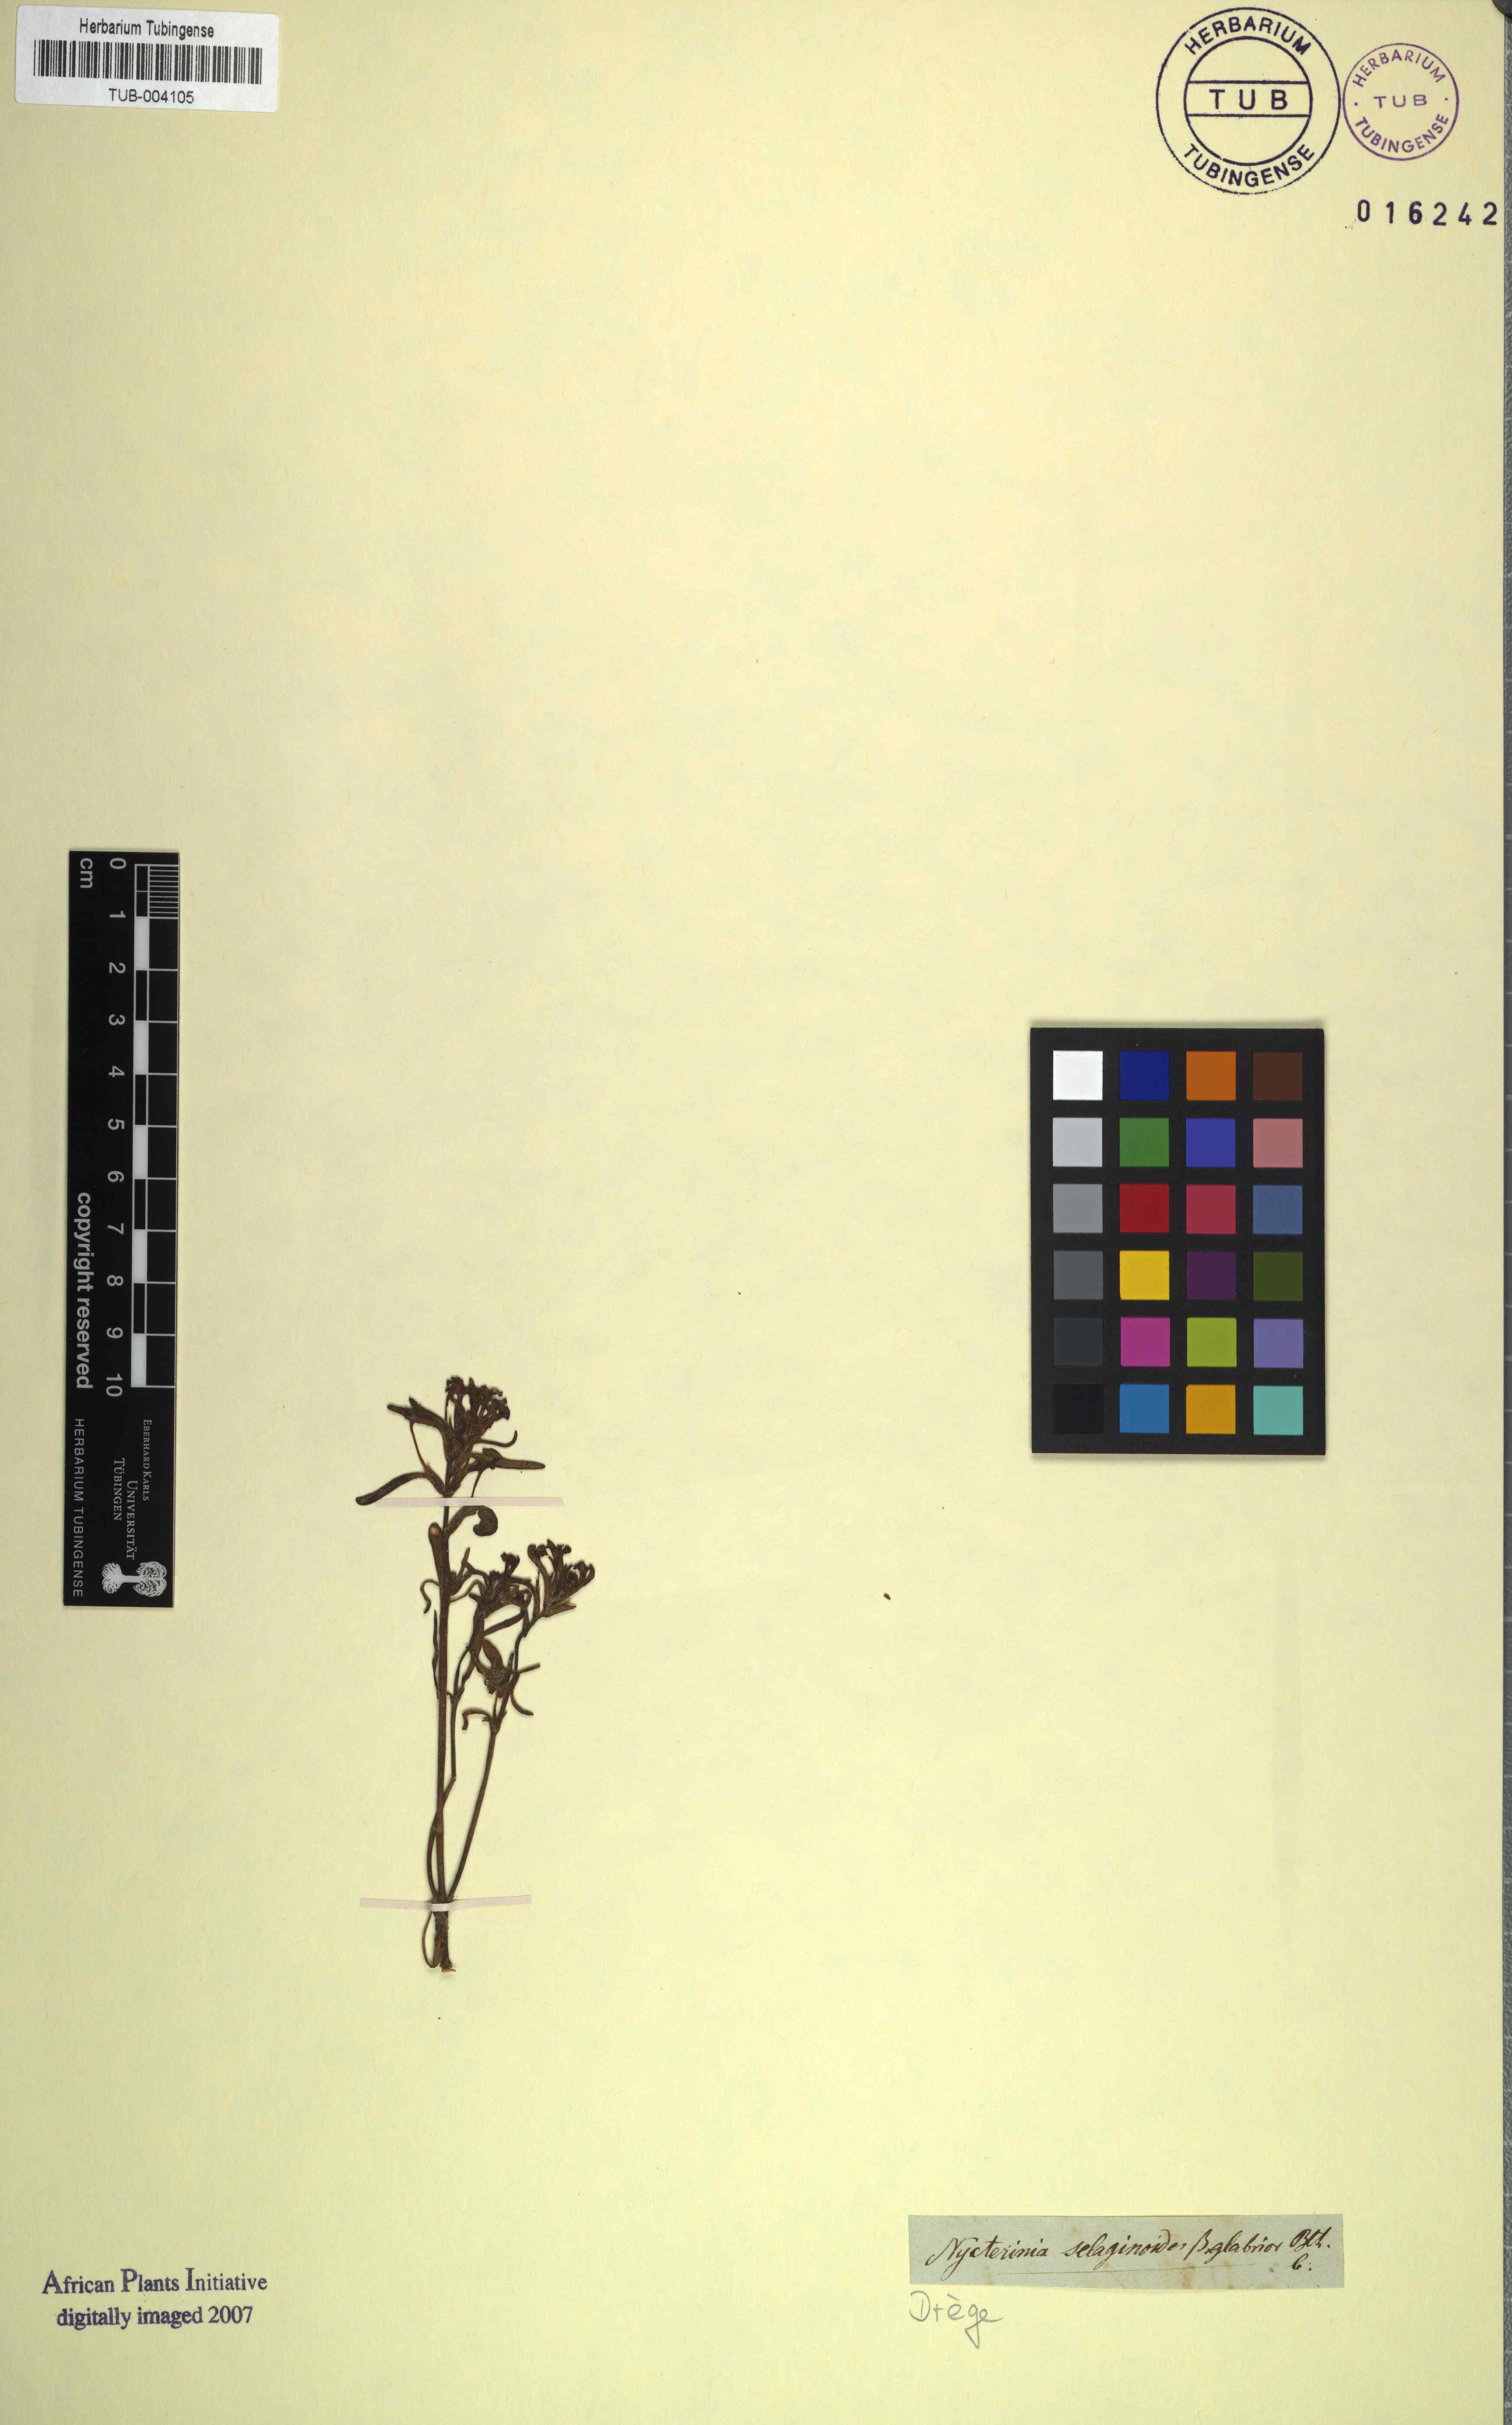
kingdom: Plantae
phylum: Tracheophyta
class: Magnoliopsida
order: Lamiales
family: Scrophulariaceae
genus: Zaluzianskya
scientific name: Zaluzianskya villosa
